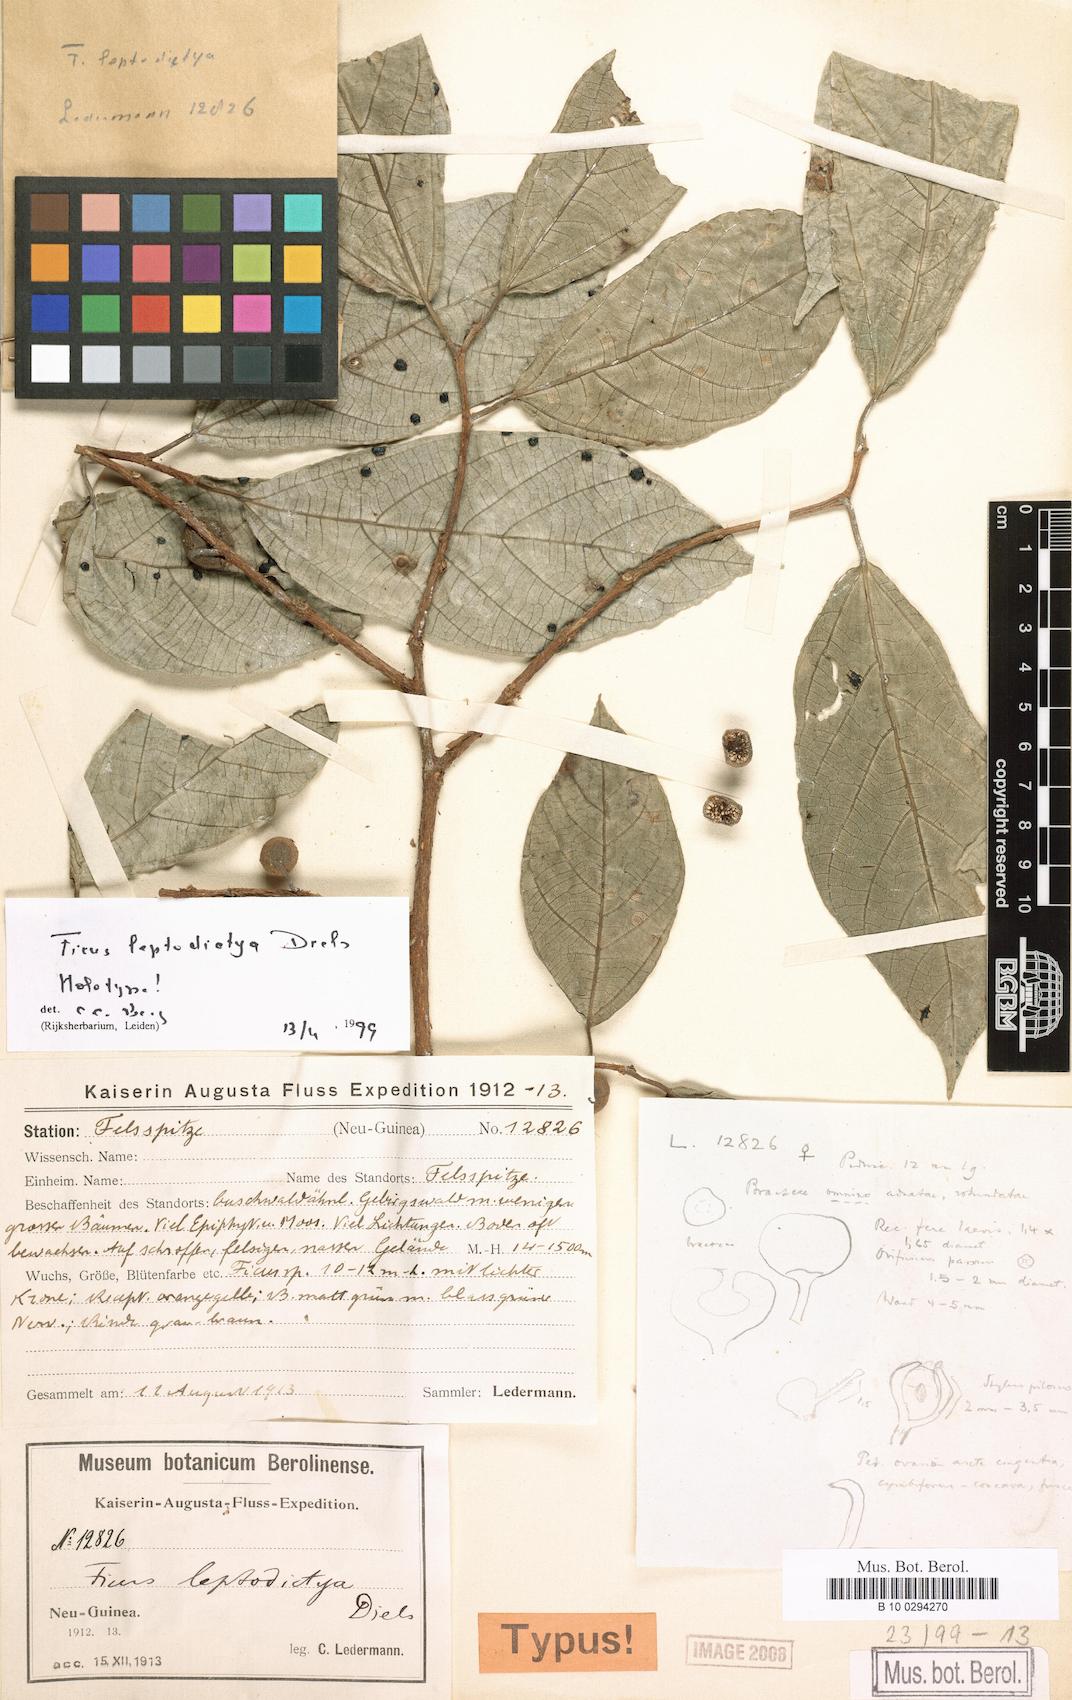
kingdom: Plantae
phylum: Tracheophyta
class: Magnoliopsida
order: Rosales
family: Moraceae
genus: Ficus
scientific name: Ficus leptodictya
